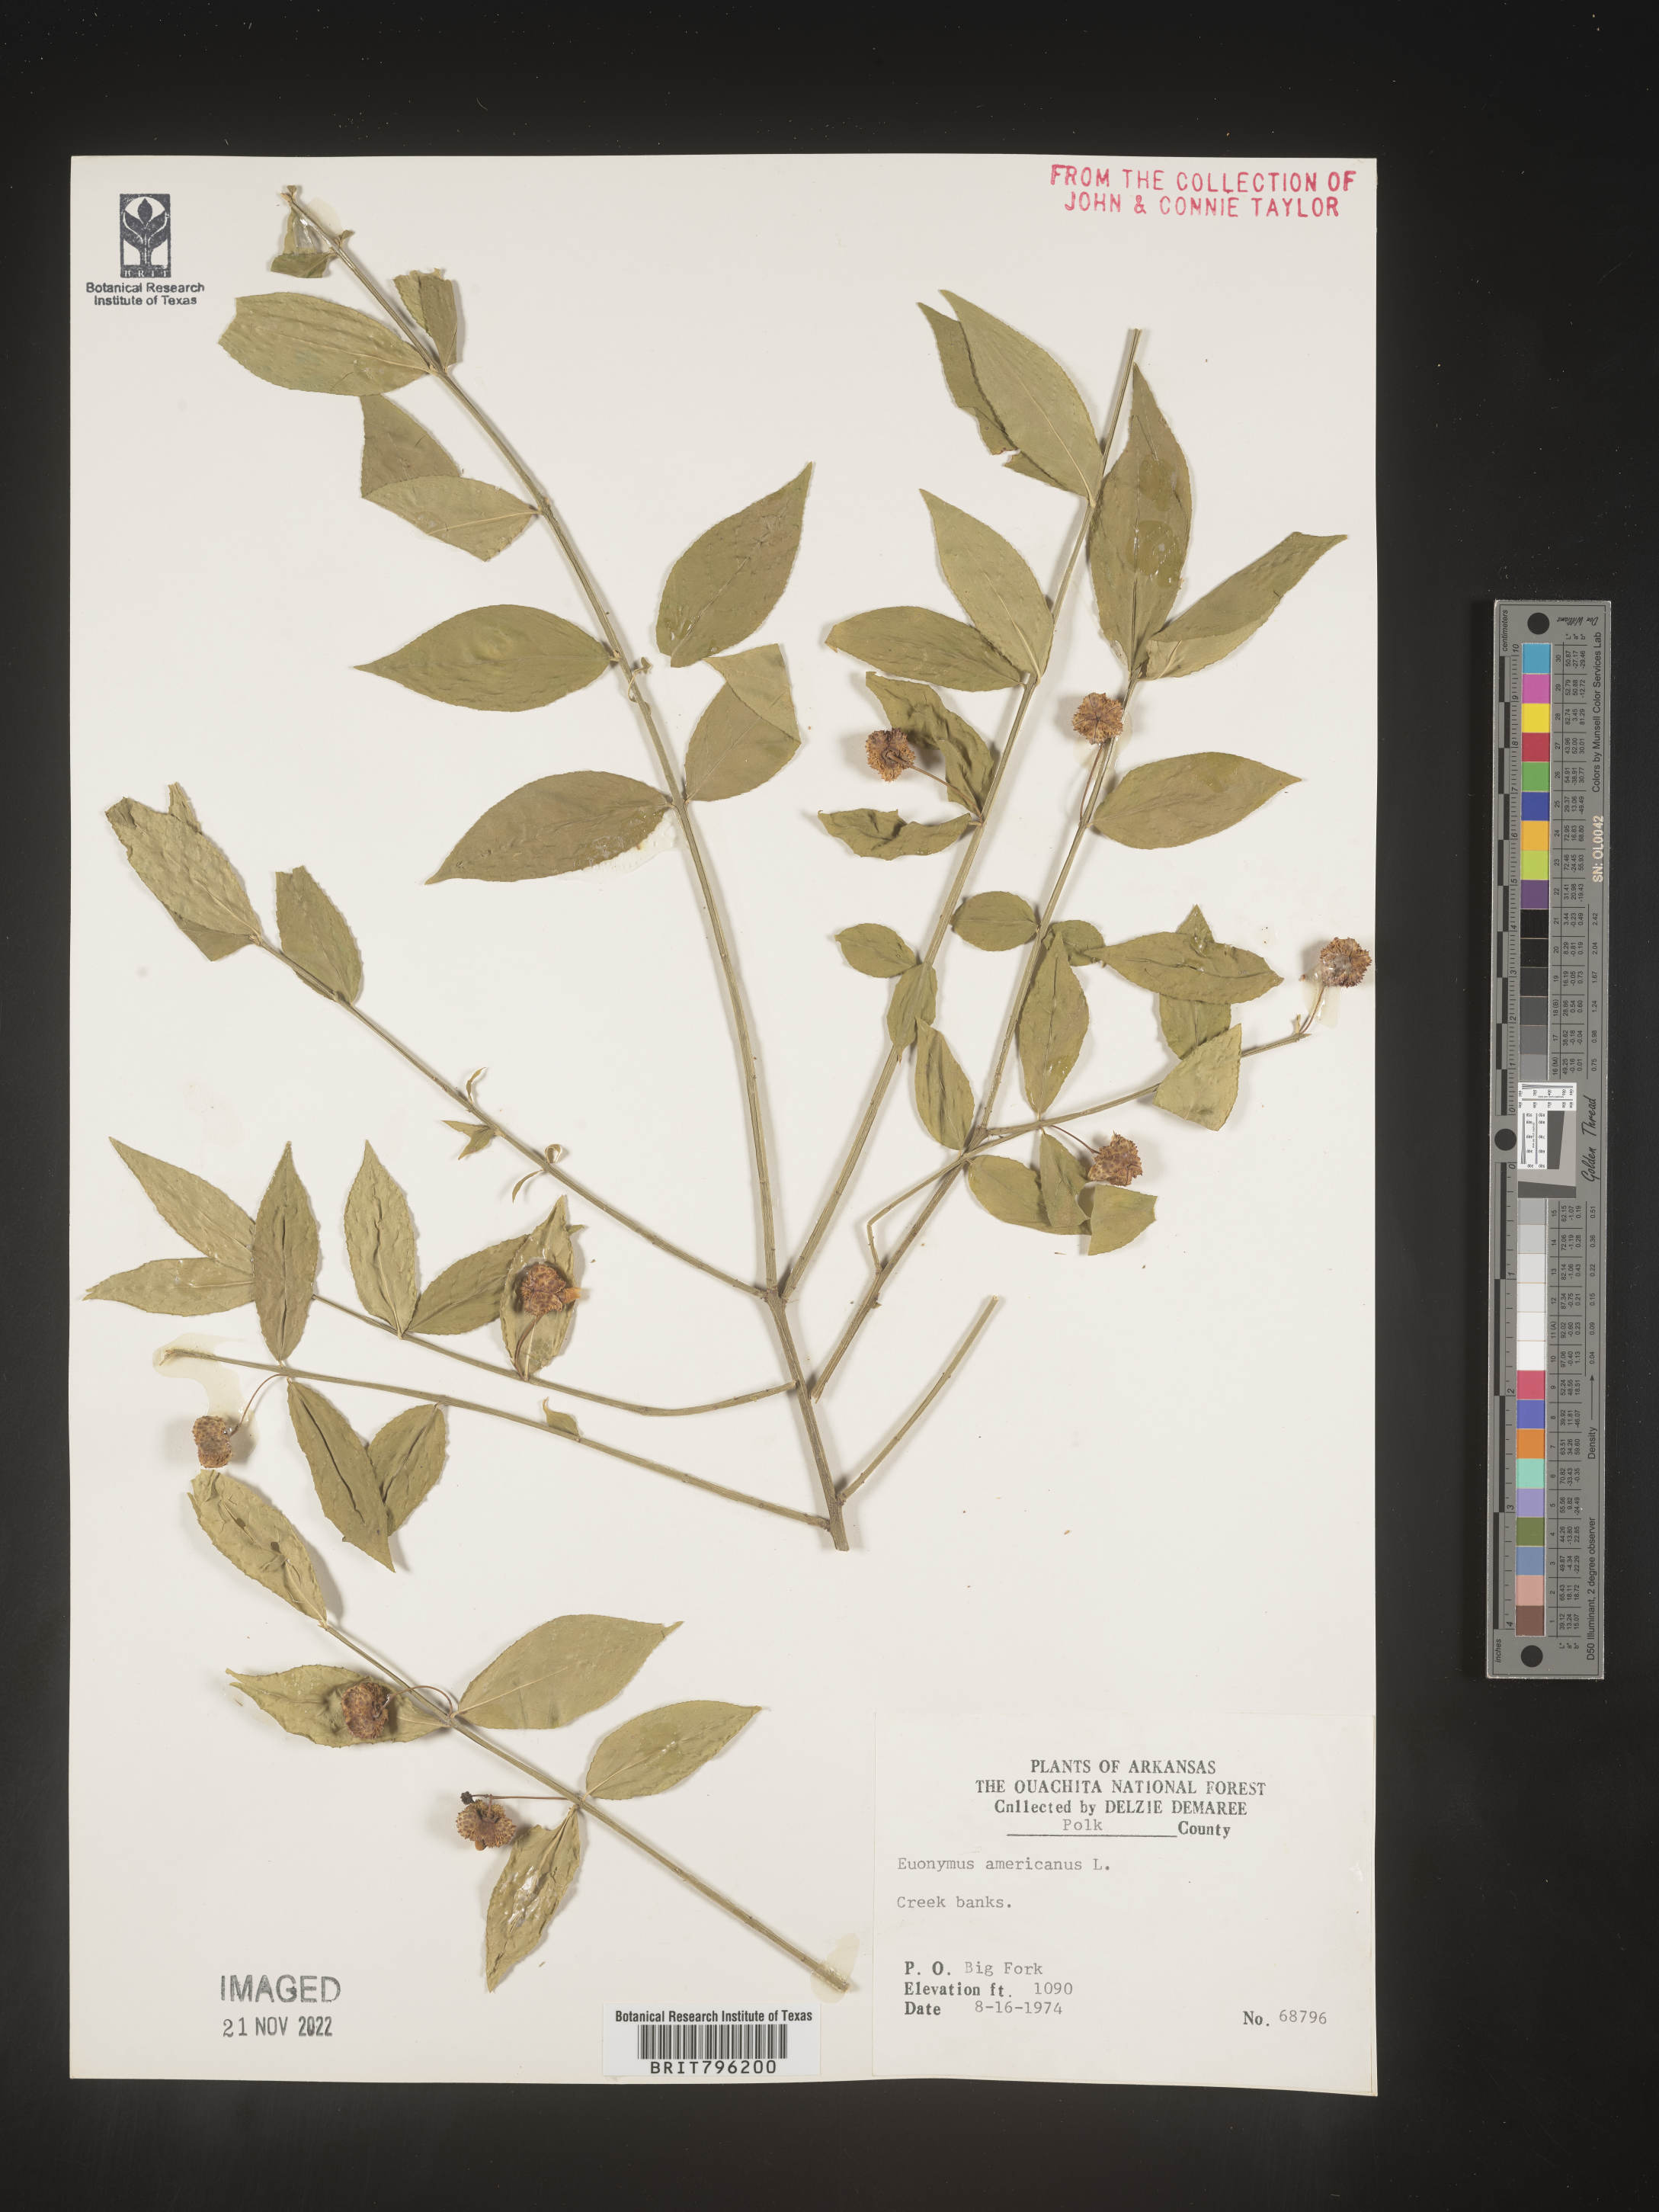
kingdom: Plantae
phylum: Tracheophyta
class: Magnoliopsida
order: Celastrales
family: Celastraceae
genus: Euonymus
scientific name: Euonymus americanus
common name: Bursting-heart
